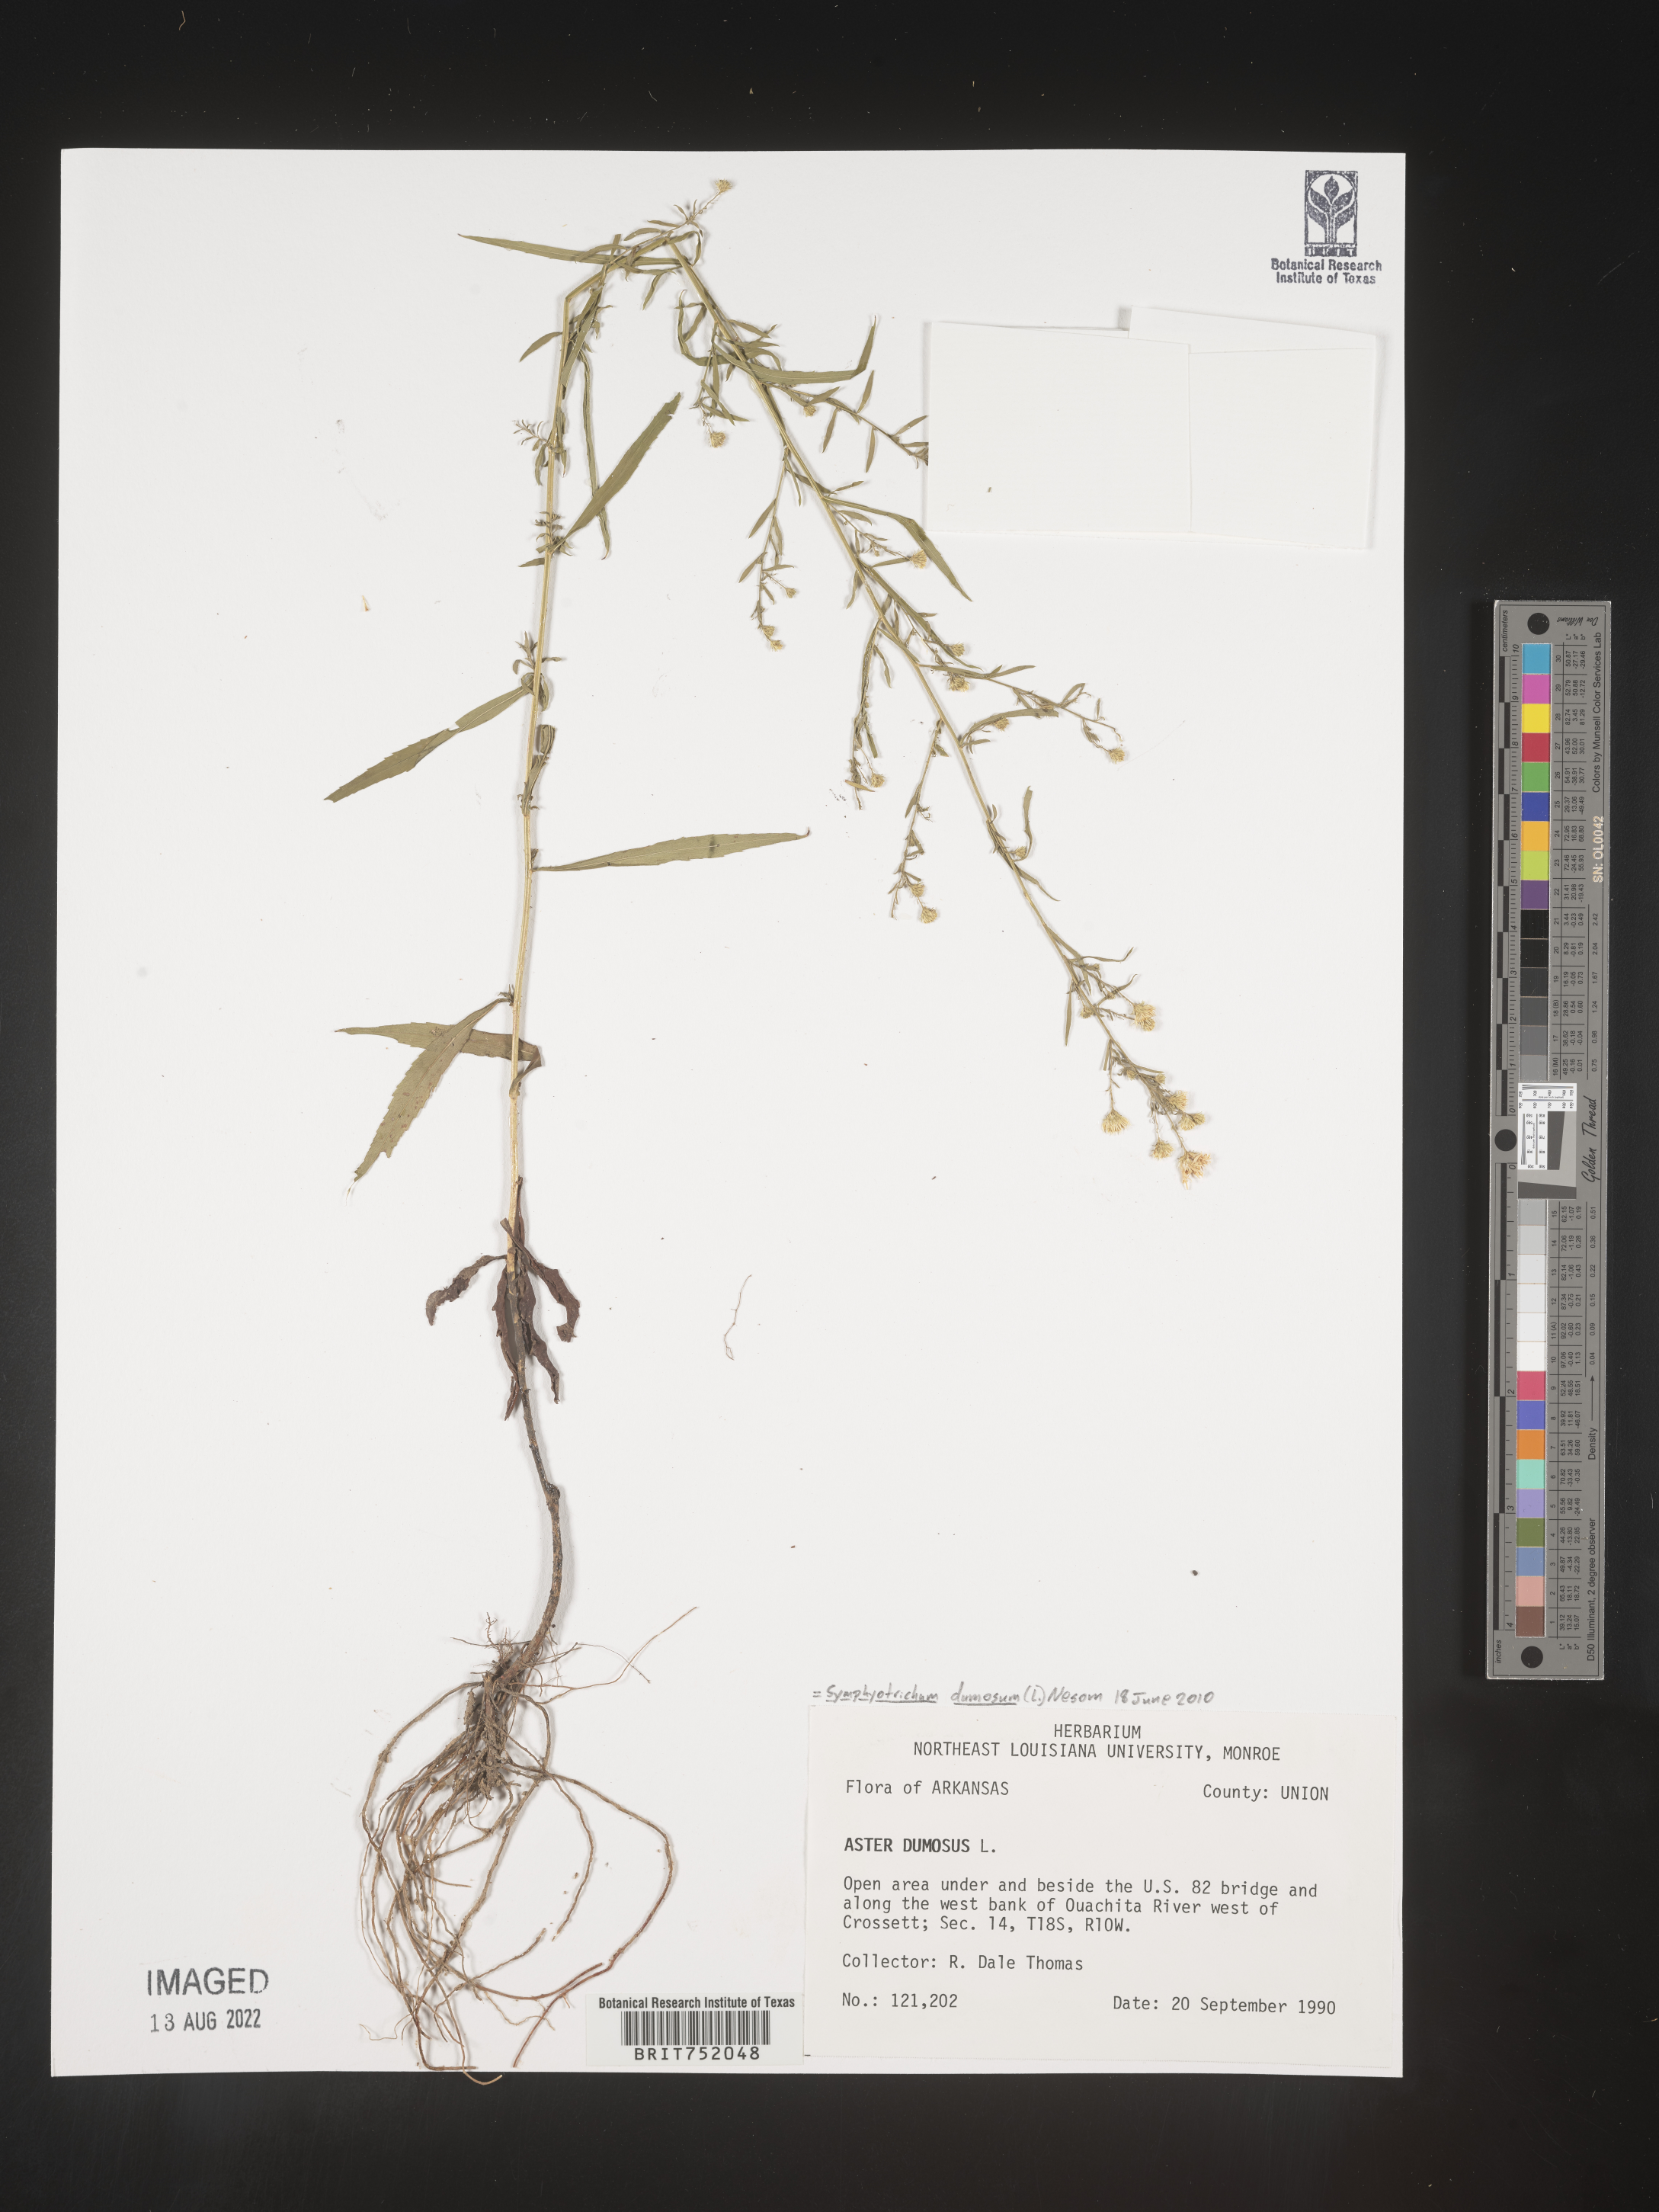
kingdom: Plantae
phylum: Tracheophyta
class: Magnoliopsida
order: Asterales
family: Asteraceae
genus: Symphyotrichum
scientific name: Symphyotrichum dumosum
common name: Bushy aster
